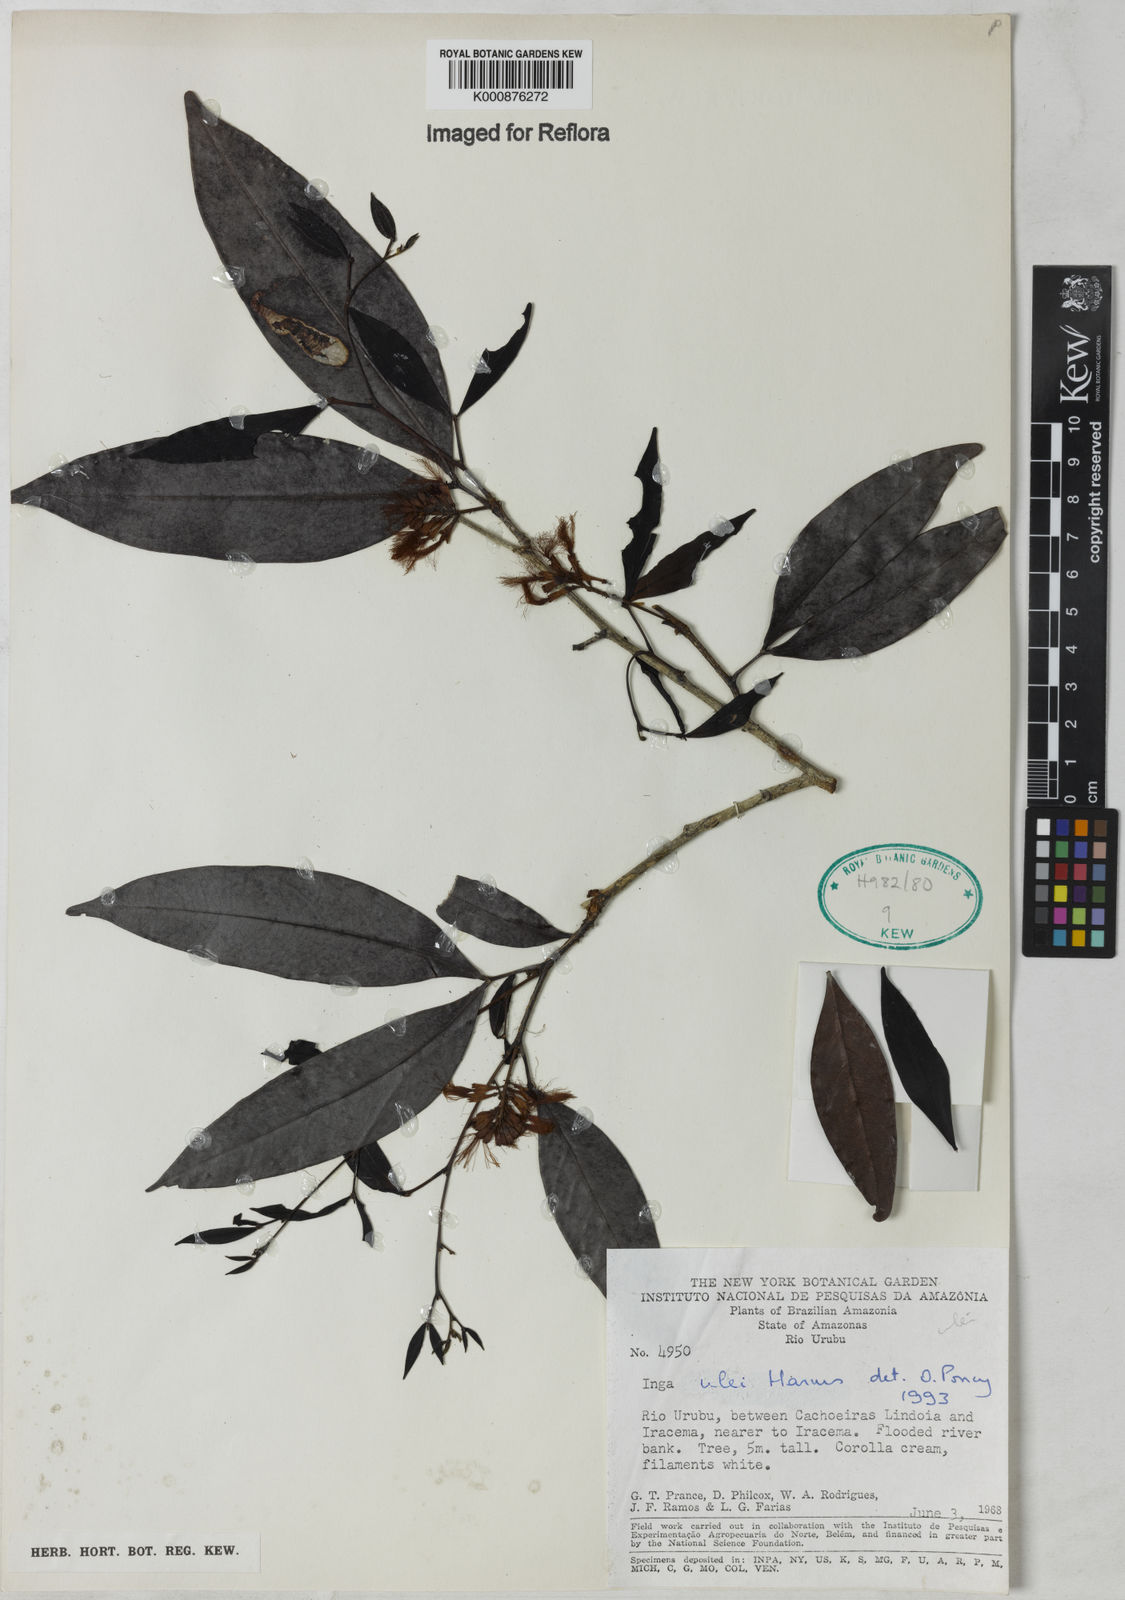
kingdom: Plantae
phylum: Tracheophyta
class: Magnoliopsida
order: Fabales
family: Fabaceae
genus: Inga
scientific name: Inga ulei
